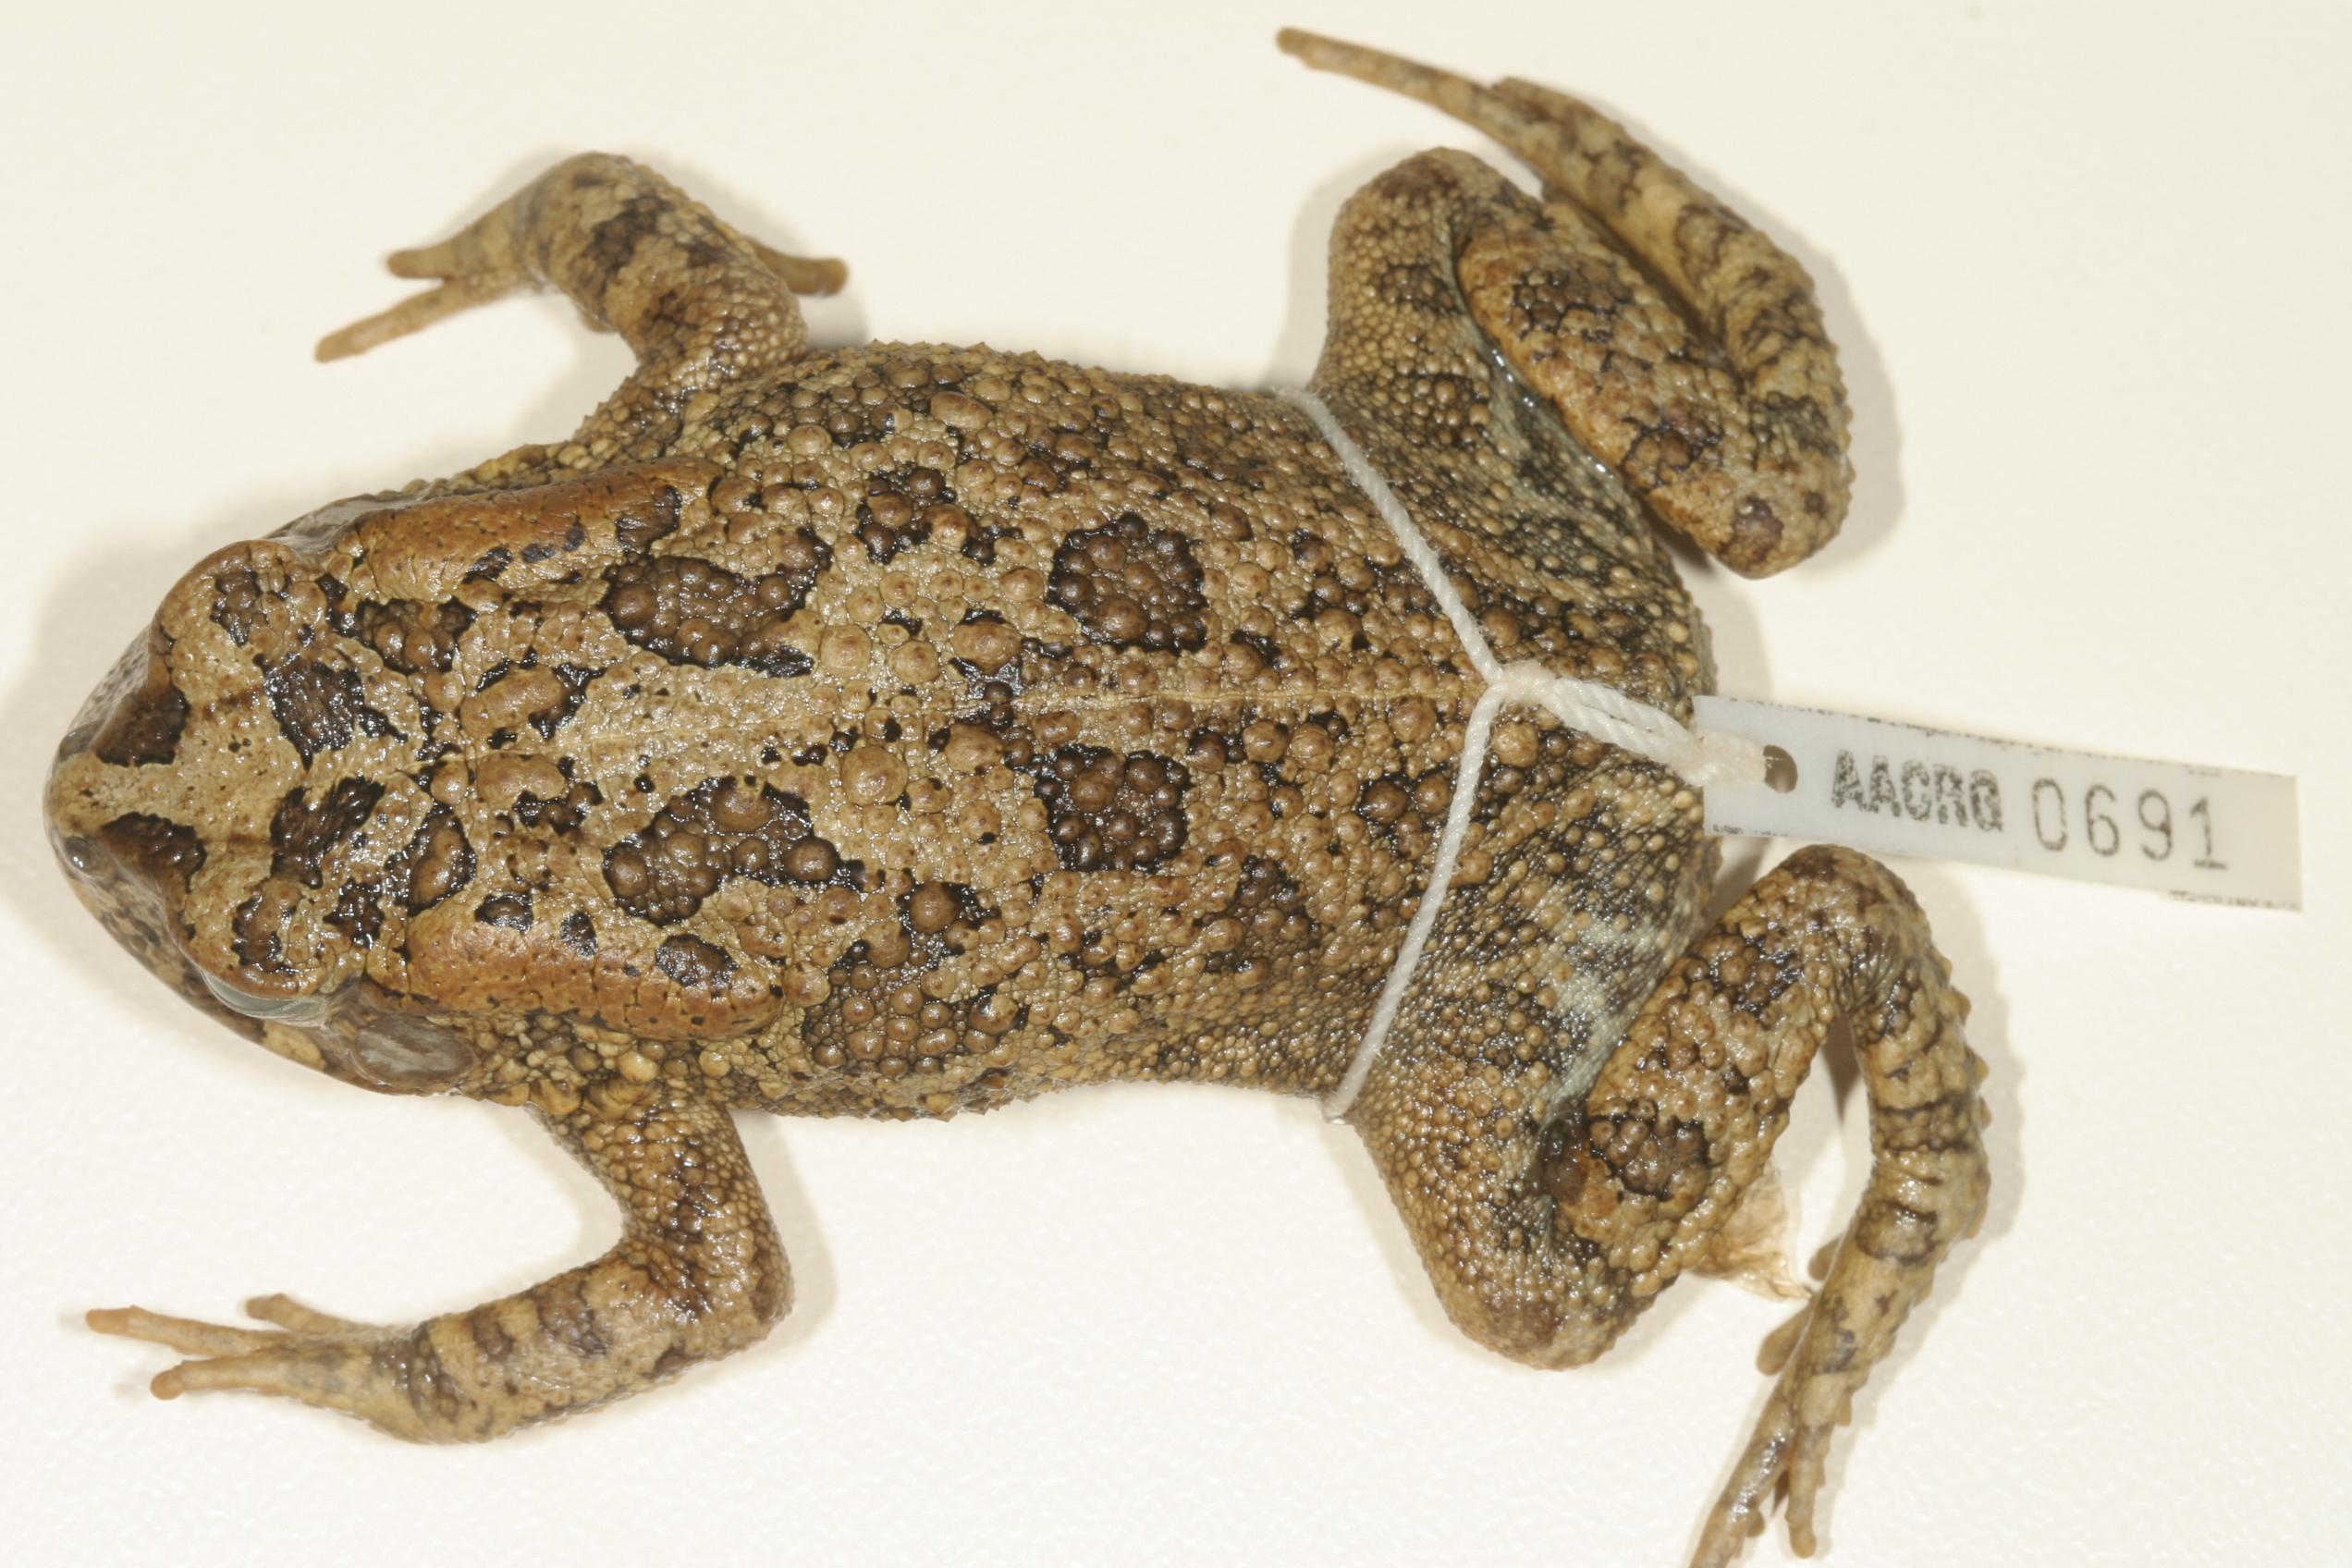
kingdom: Animalia
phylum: Chordata
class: Amphibia
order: Anura
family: Bufonidae
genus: Sclerophrys
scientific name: Sclerophrys gutturalis
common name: African common toad
